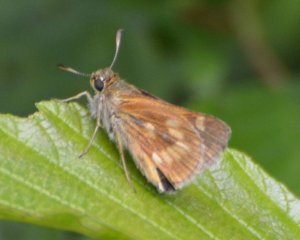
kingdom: Animalia
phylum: Arthropoda
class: Insecta
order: Lepidoptera
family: Hesperiidae
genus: Polites
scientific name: Polites
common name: Long Dash Skipper
